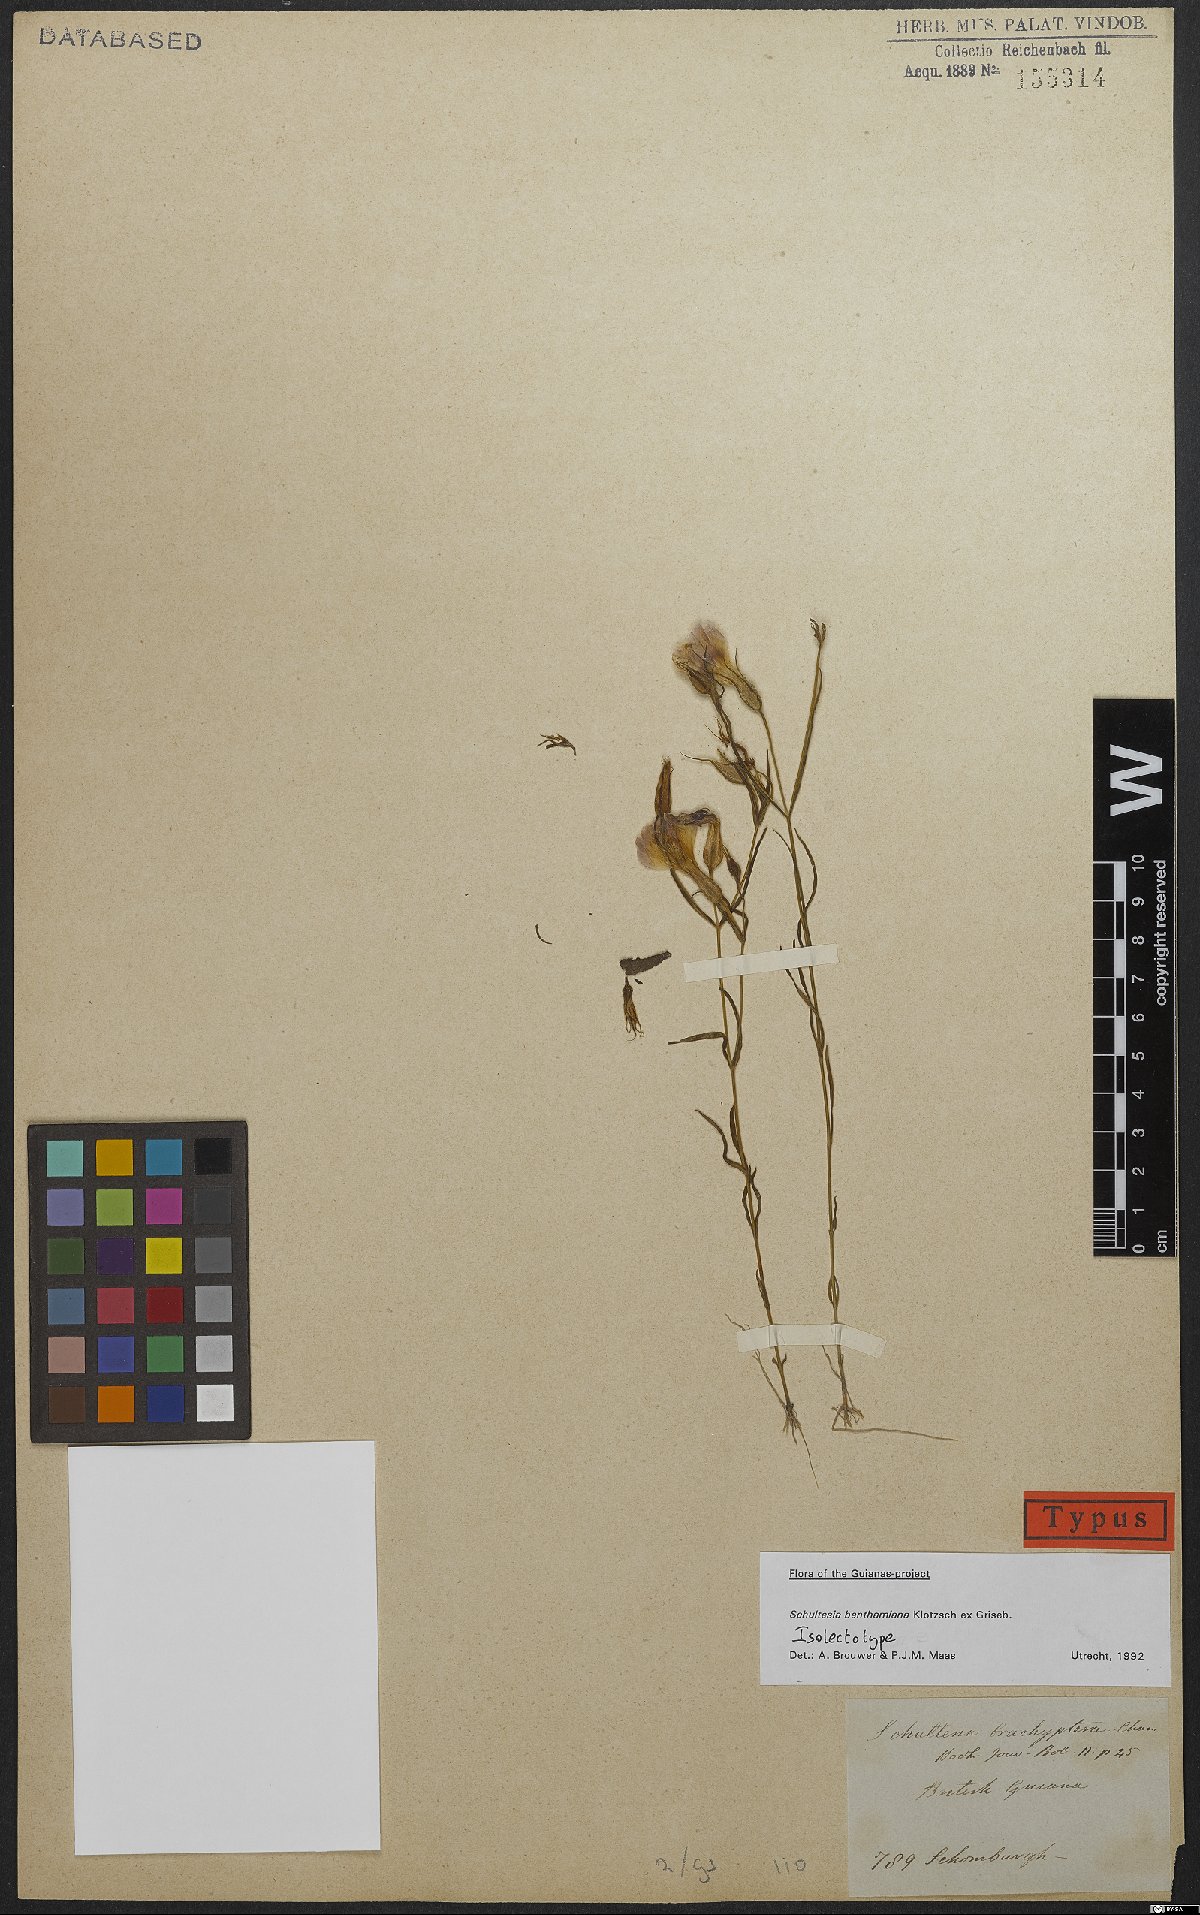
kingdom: Plantae
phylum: Tracheophyta
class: Magnoliopsida
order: Gentianales
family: Gentianaceae
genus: Schultesia
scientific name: Schultesia benthamiana
